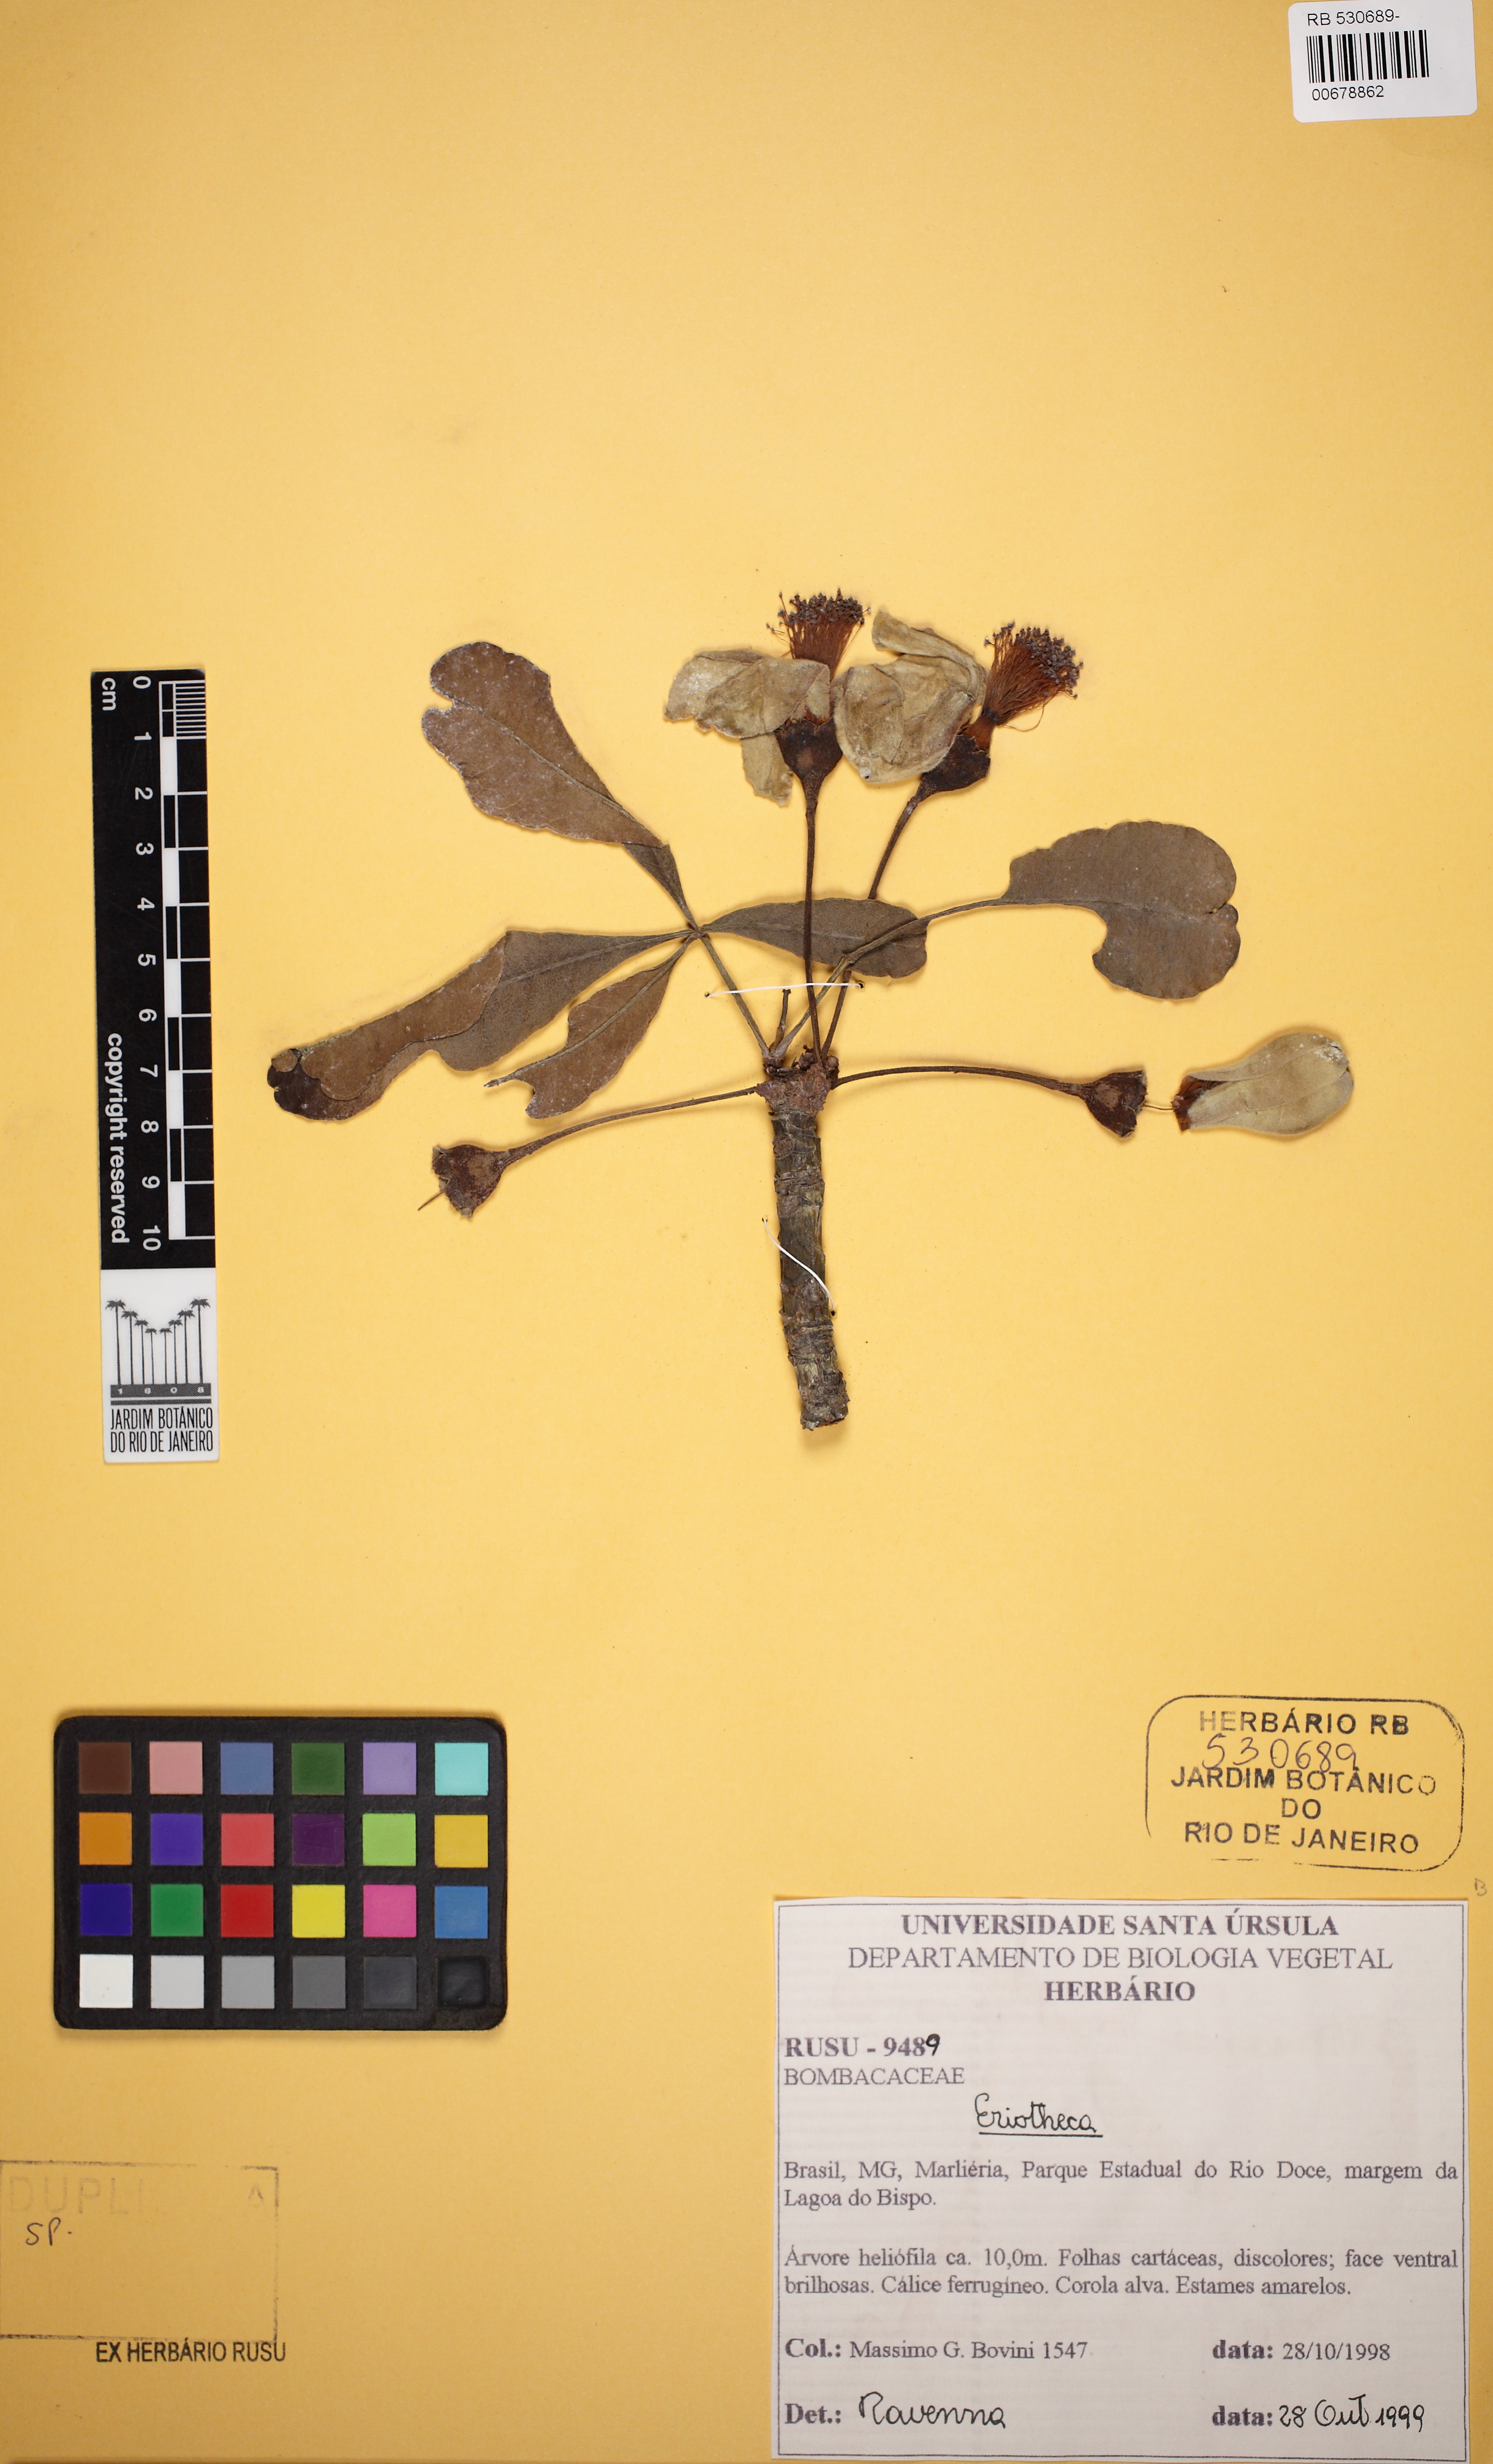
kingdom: Plantae
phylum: Tracheophyta
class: Magnoliopsida
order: Malvales
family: Malvaceae
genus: Eriotheca
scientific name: Eriotheca longipes
